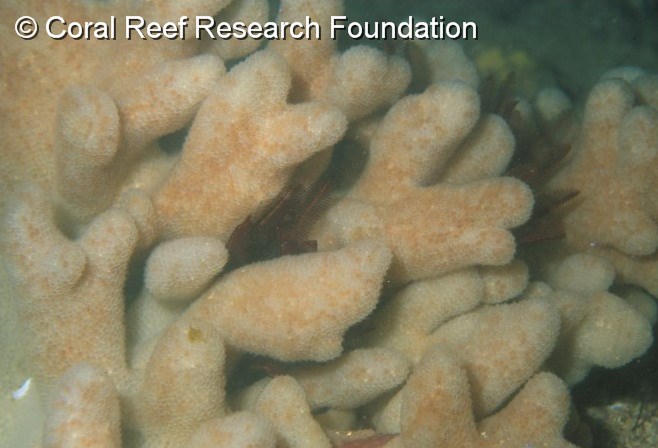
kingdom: Animalia
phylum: Chordata
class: Ascidiacea
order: Aplousobranchia
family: Pseudodistomidae
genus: Pseudodistoma
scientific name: Pseudodistoma
